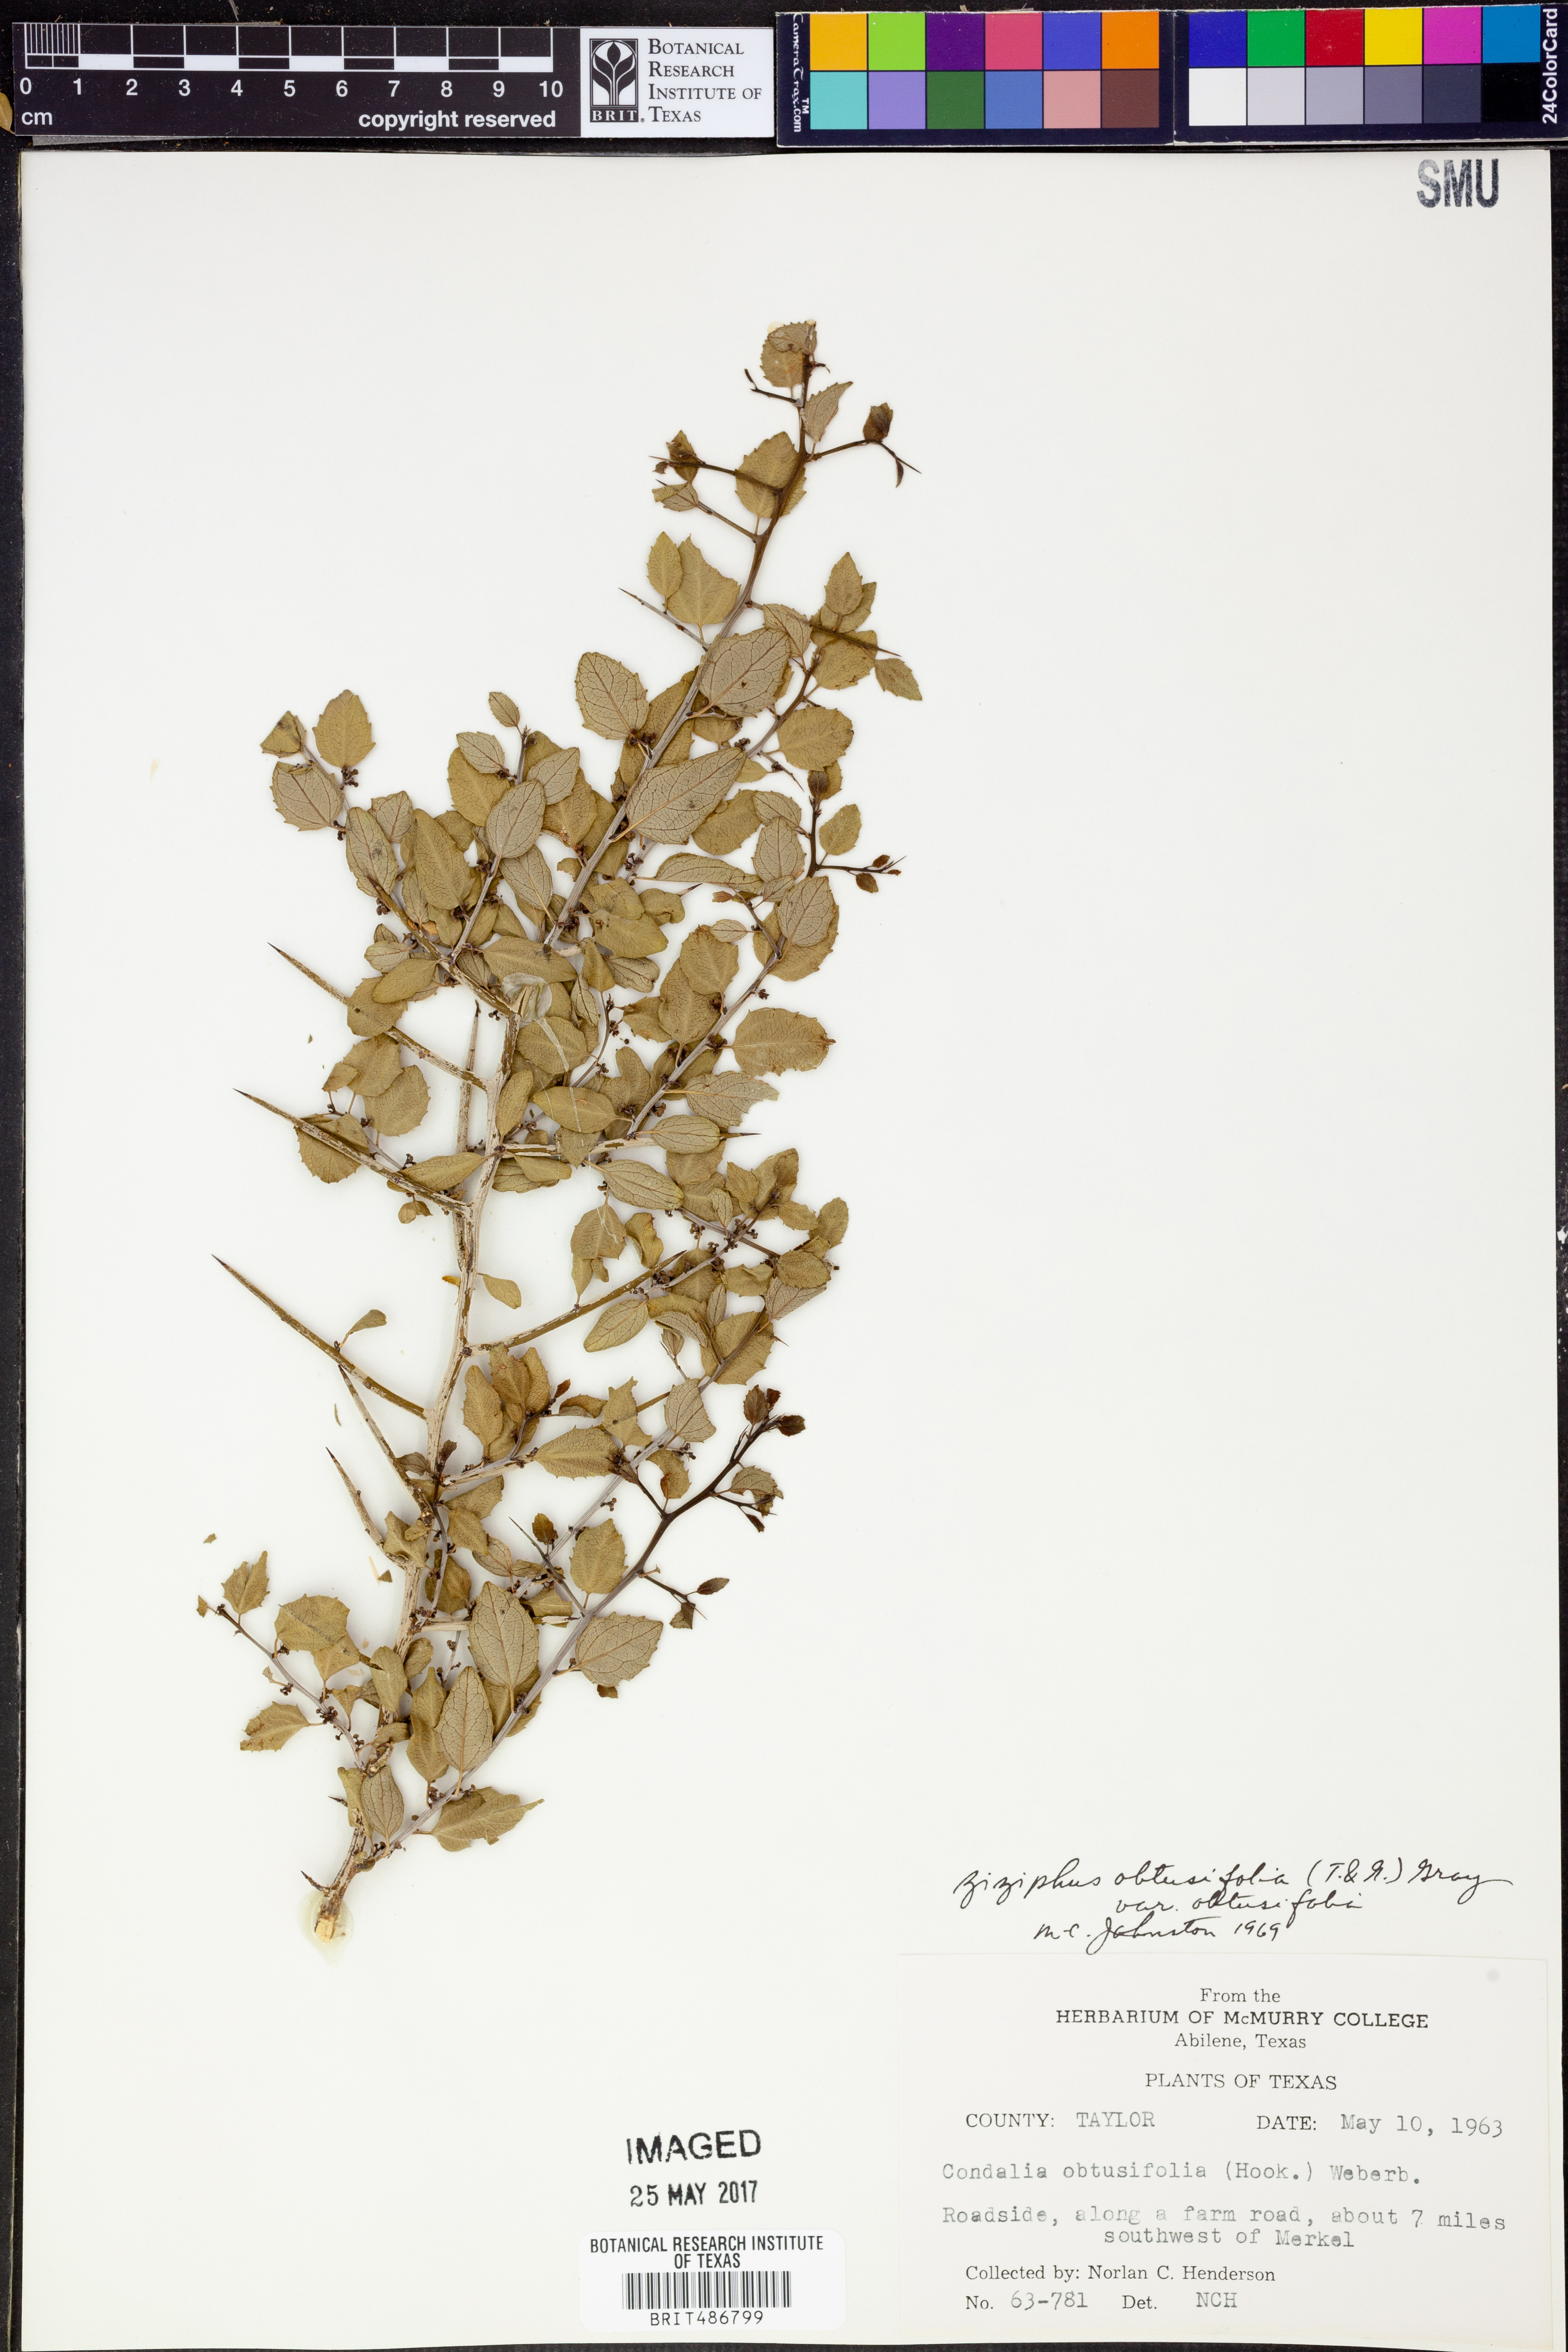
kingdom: Plantae
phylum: Tracheophyta
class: Magnoliopsida
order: Rosales
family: Rhamnaceae
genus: Sarcomphalus
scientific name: Sarcomphalus obtusifolius
